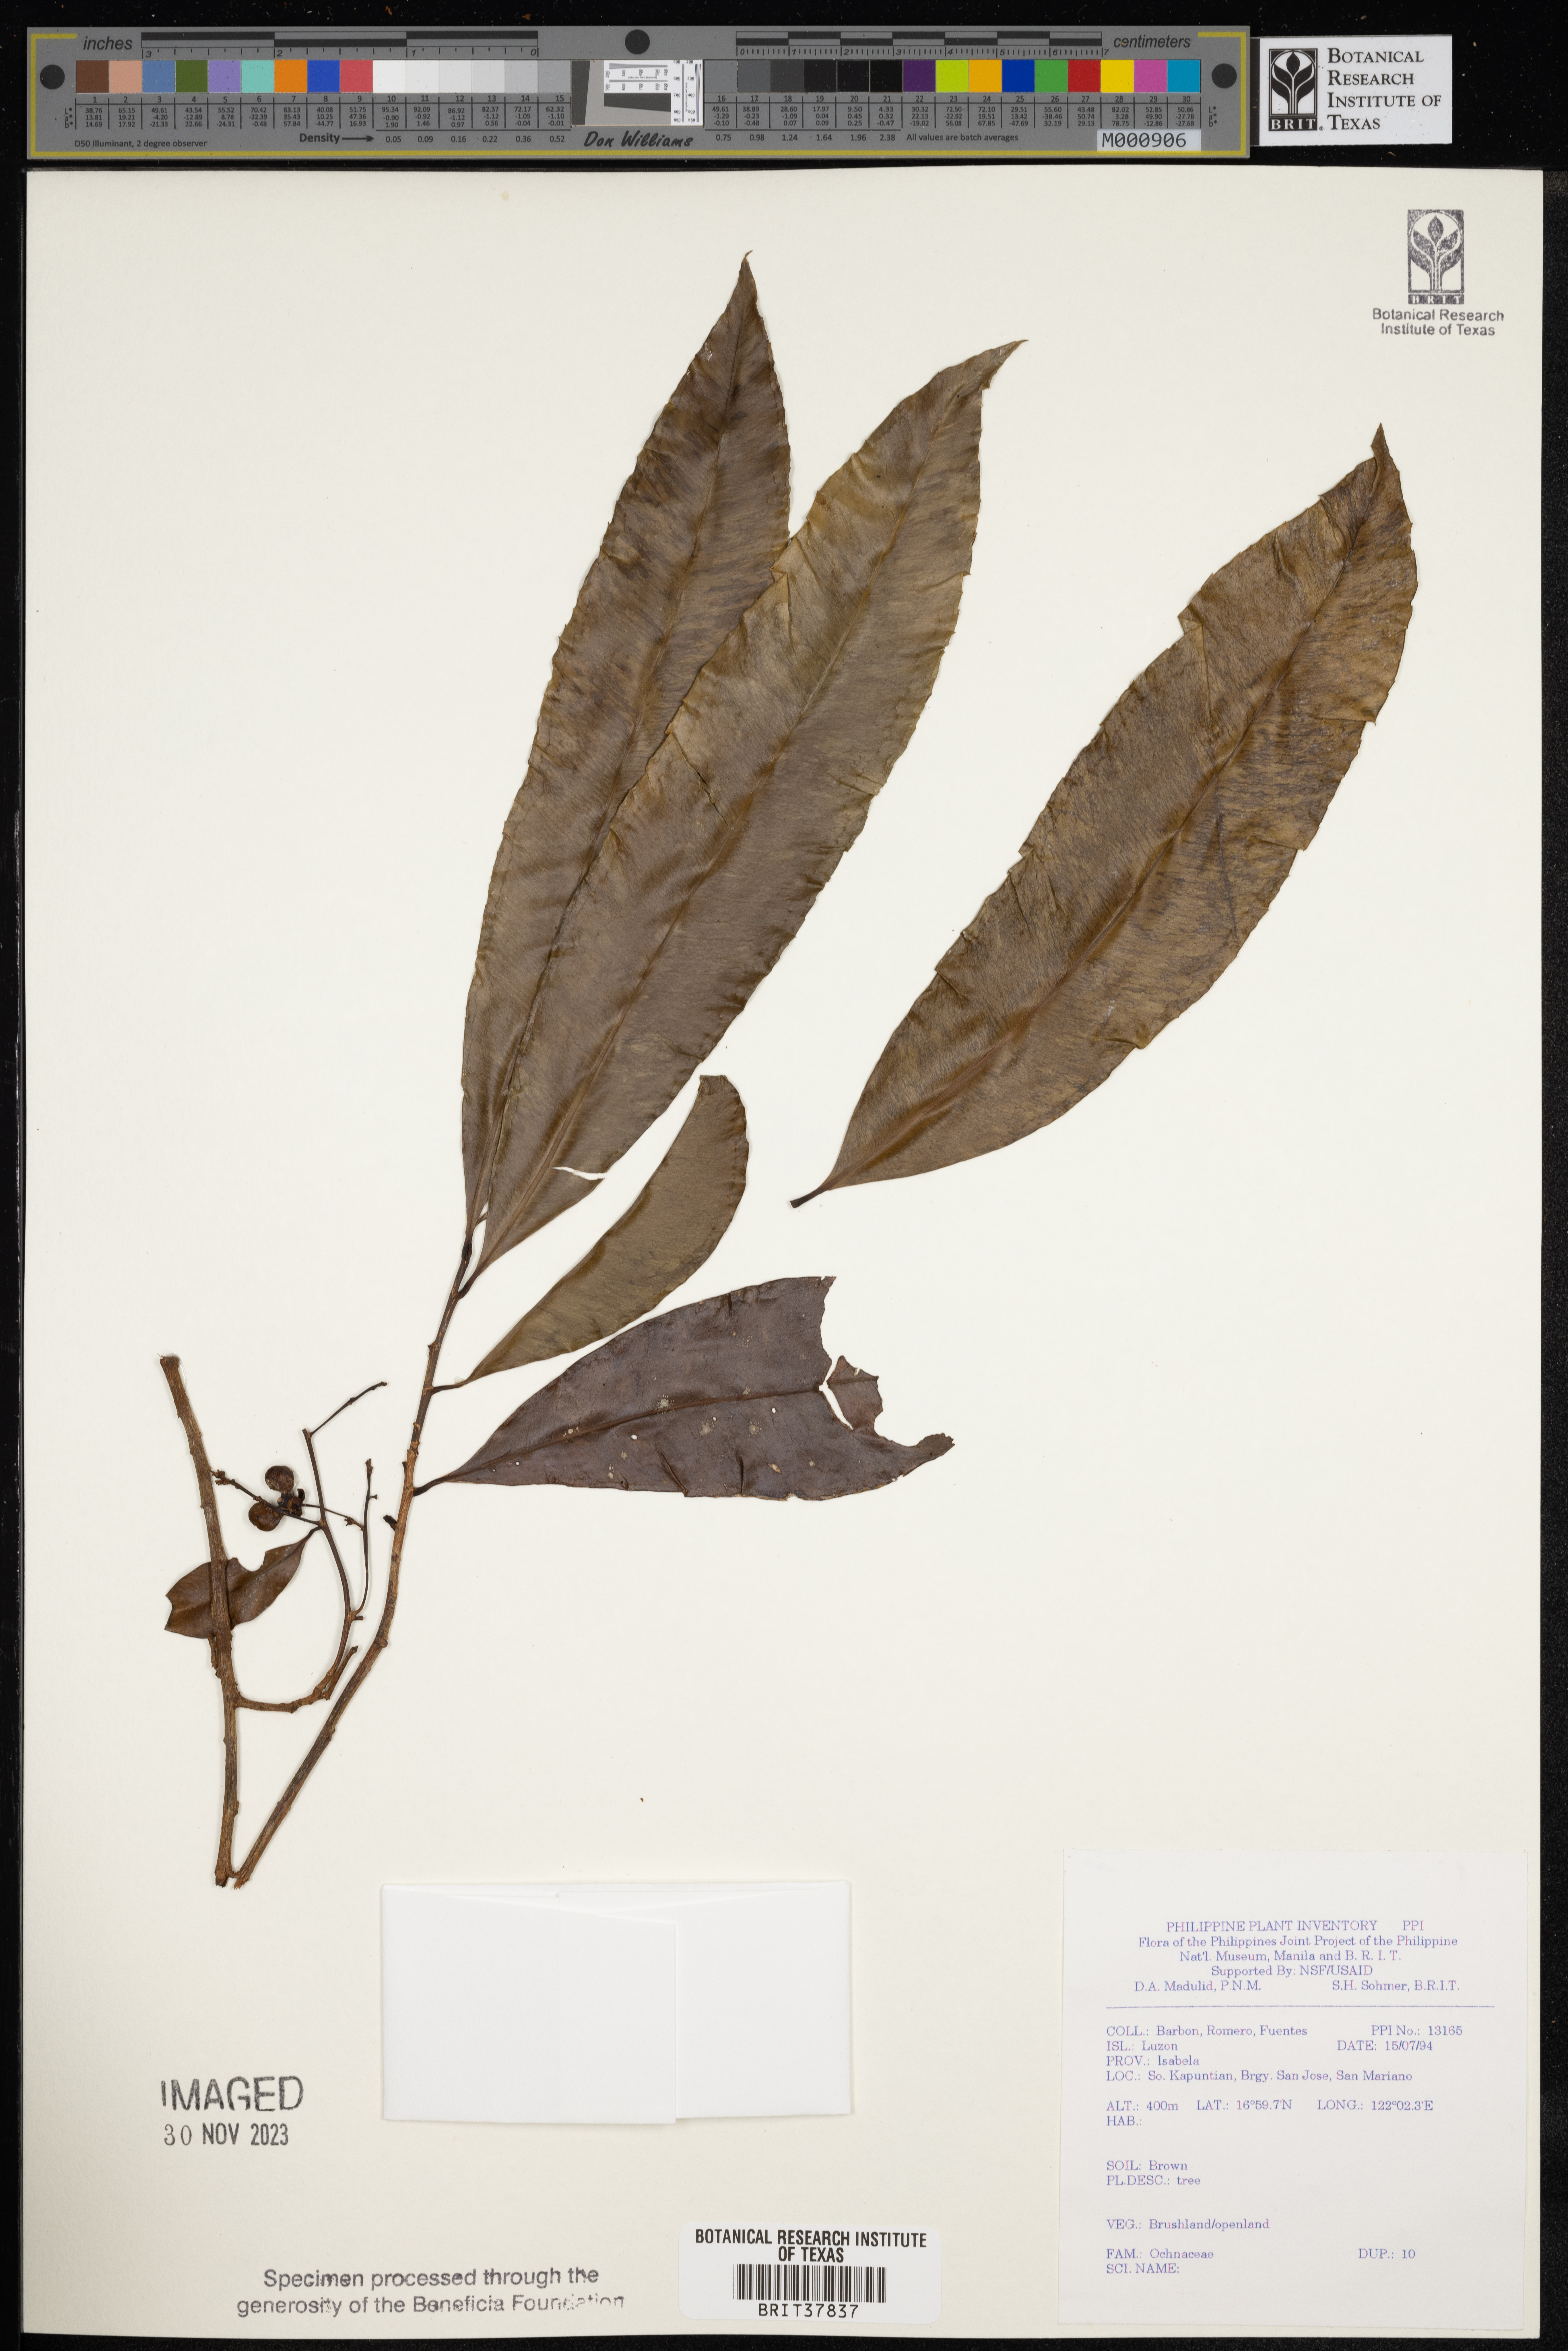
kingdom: Plantae
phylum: Tracheophyta
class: Magnoliopsida
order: Malpighiales
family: Ochnaceae
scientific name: Ochnaceae
